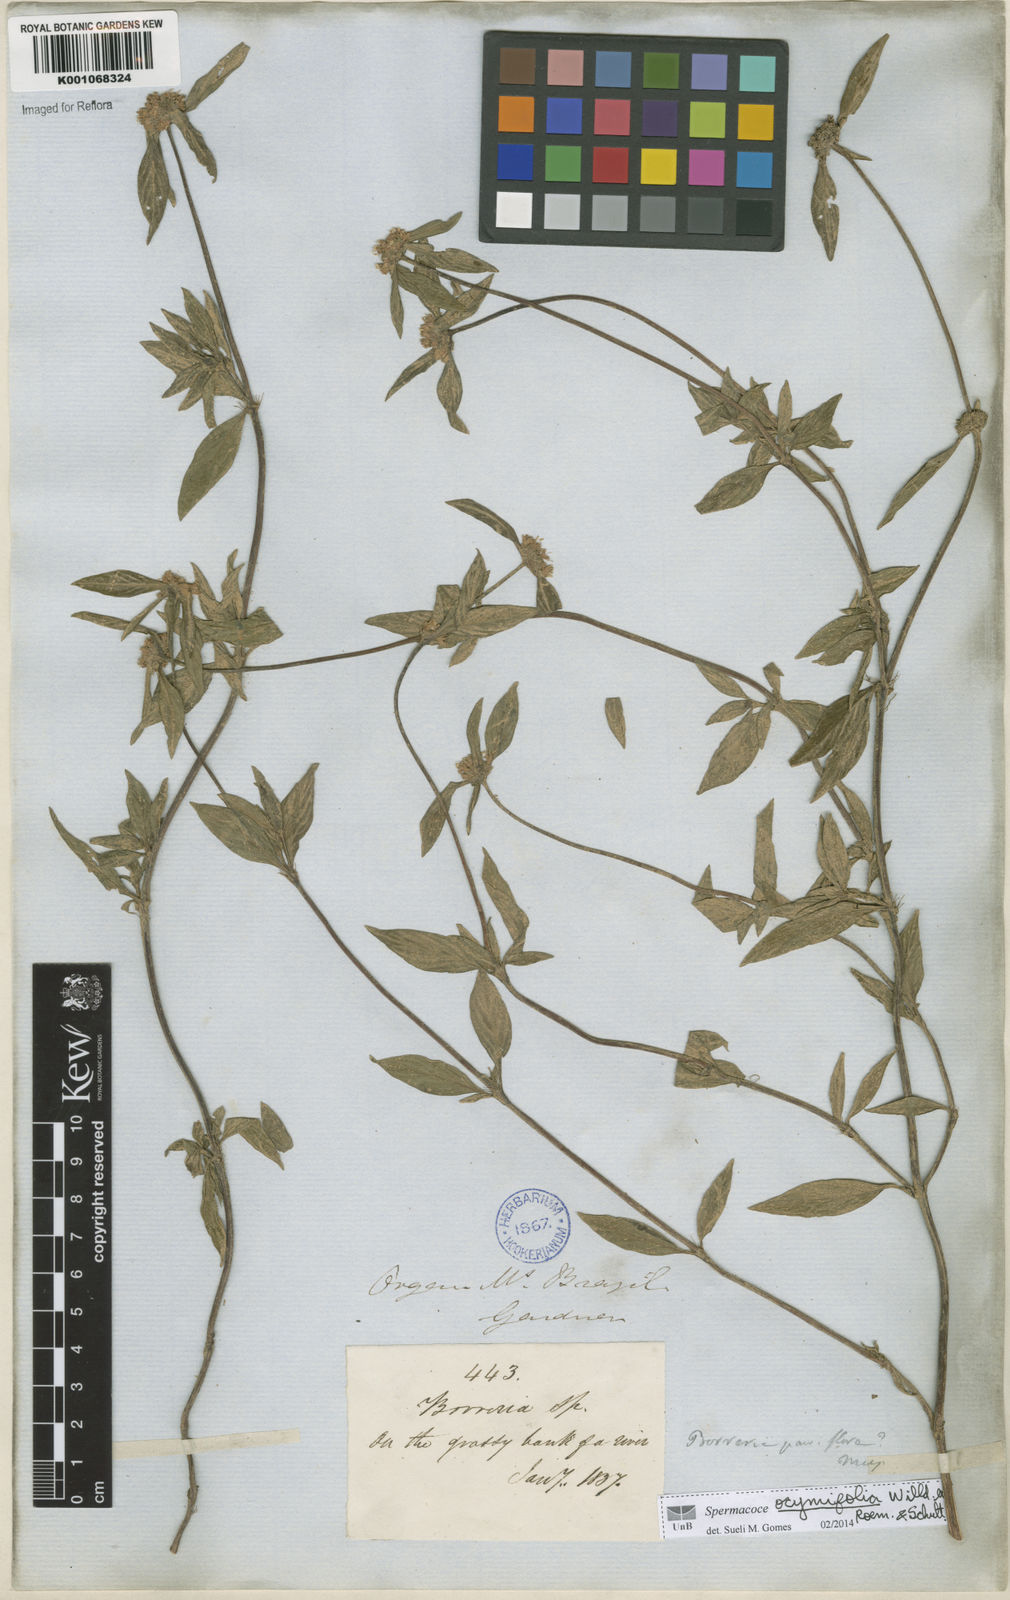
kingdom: Plantae
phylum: Tracheophyta
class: Magnoliopsida
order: Gentianales
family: Rubiaceae
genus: Spermacoce
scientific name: Spermacoce
